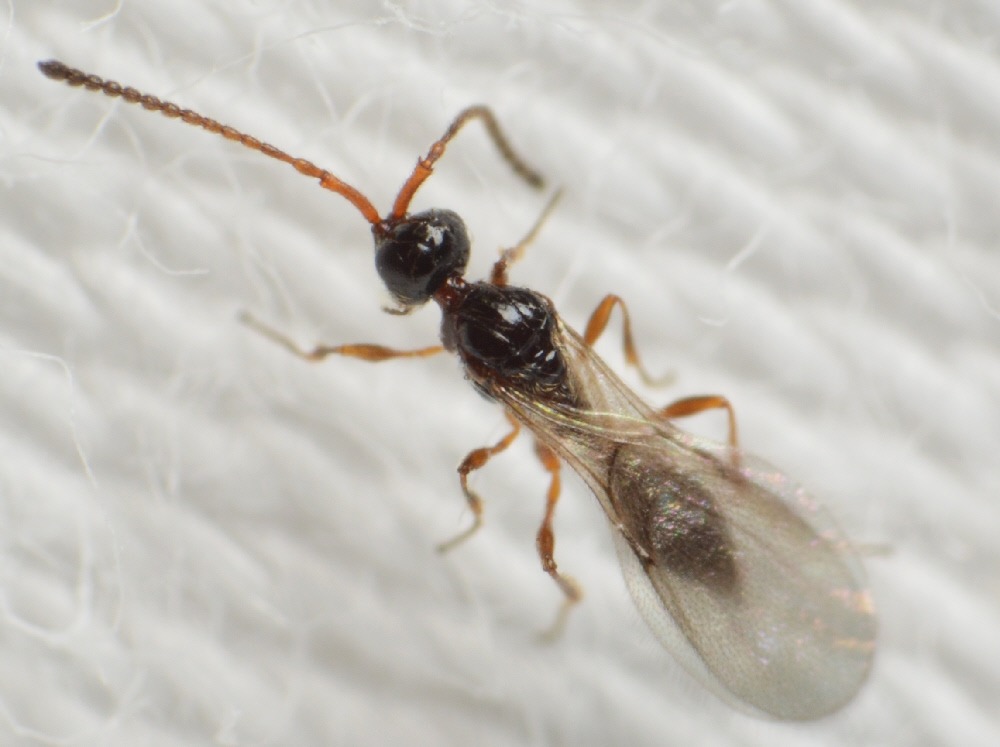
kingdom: Animalia
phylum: Arthropoda
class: Insecta
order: Hymenoptera
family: Diapriidae
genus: Polypeza
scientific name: Polypeza ciliata
